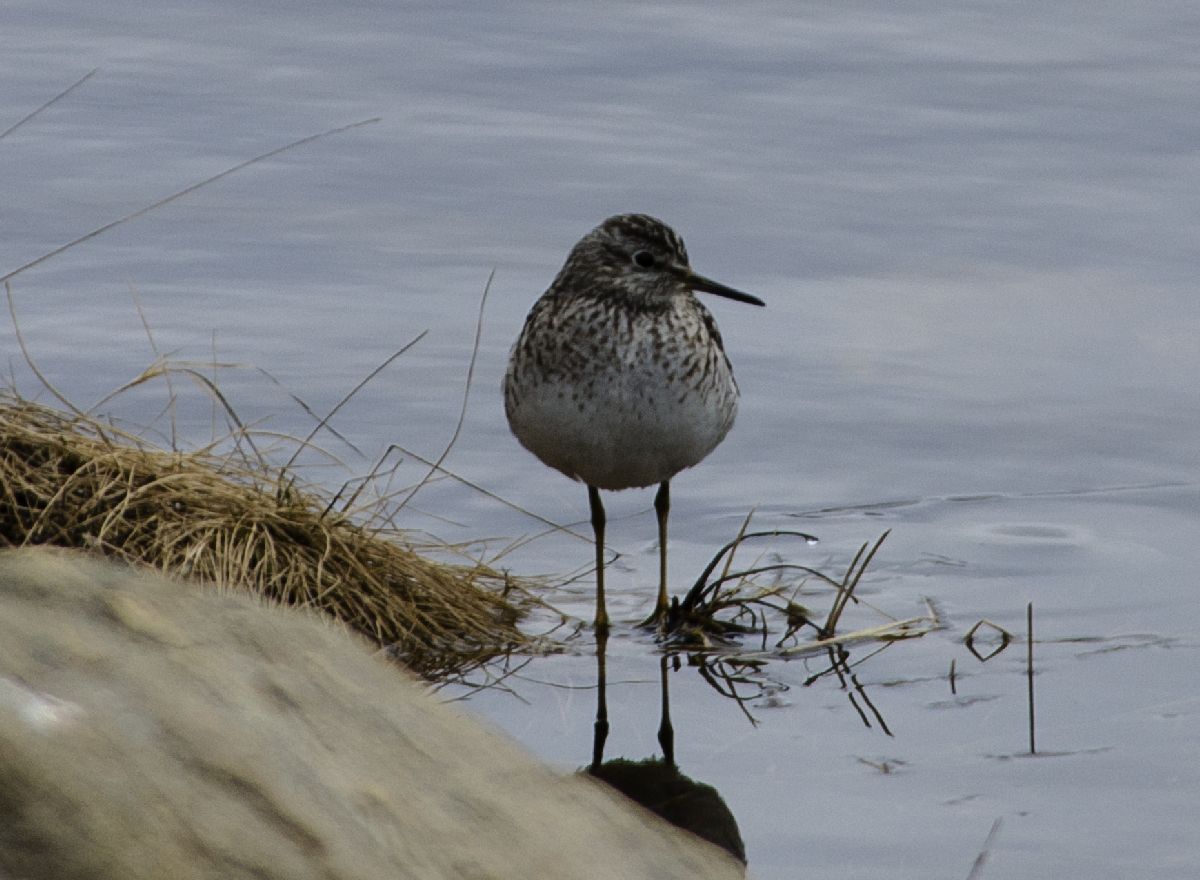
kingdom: Animalia
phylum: Chordata
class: Aves
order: Charadriiformes
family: Scolopacidae
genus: Tringa
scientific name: Tringa glareola
